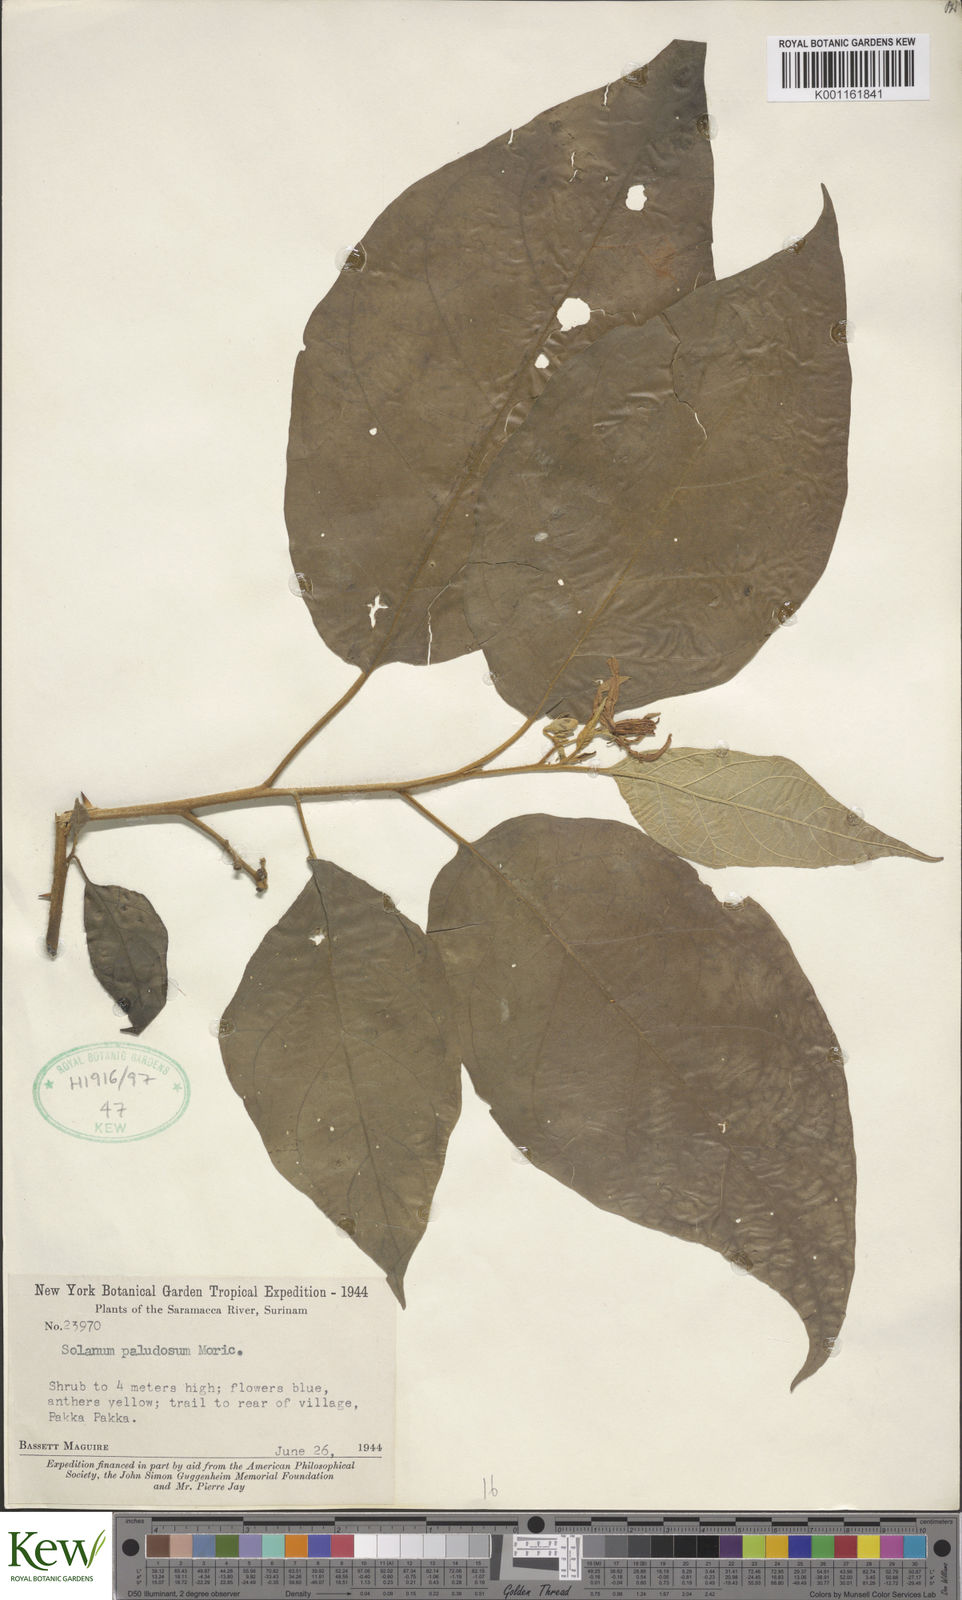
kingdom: Plantae
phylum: Tracheophyta
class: Magnoliopsida
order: Solanales
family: Solanaceae
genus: Solanum
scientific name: Solanum paludosum
